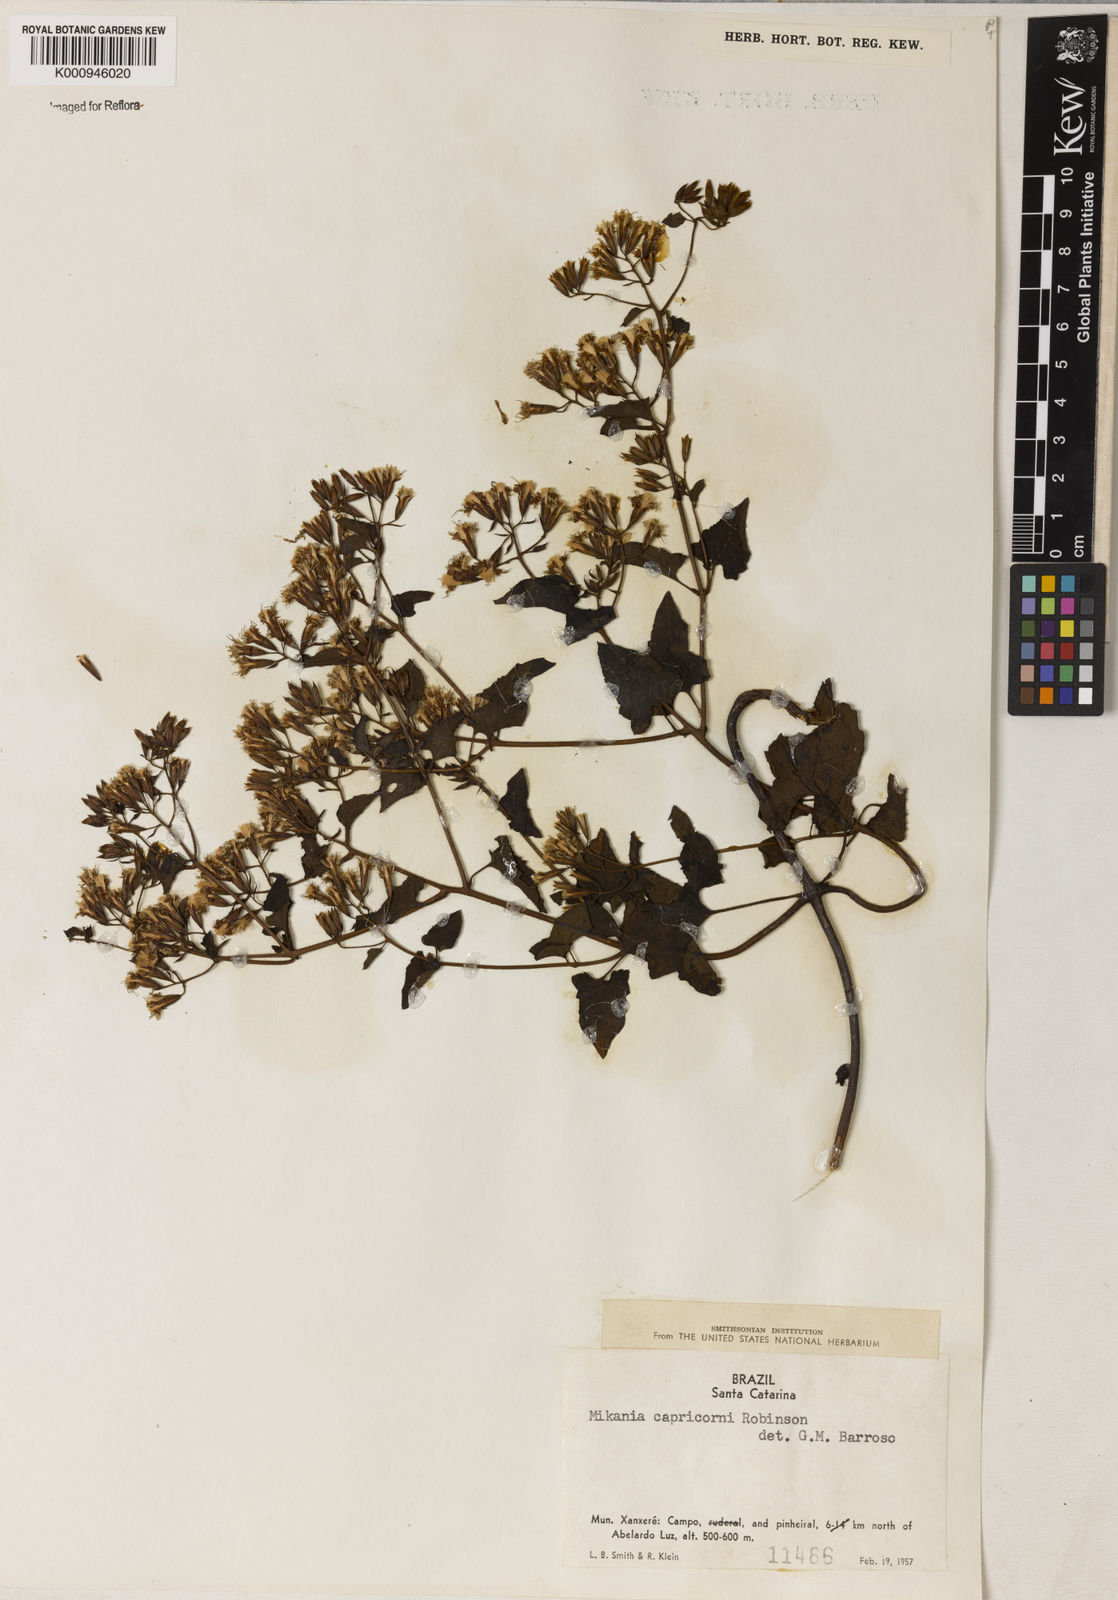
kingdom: Plantae
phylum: Tracheophyta
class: Magnoliopsida
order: Asterales
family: Asteraceae
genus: Mikania
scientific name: Mikania capricorni
